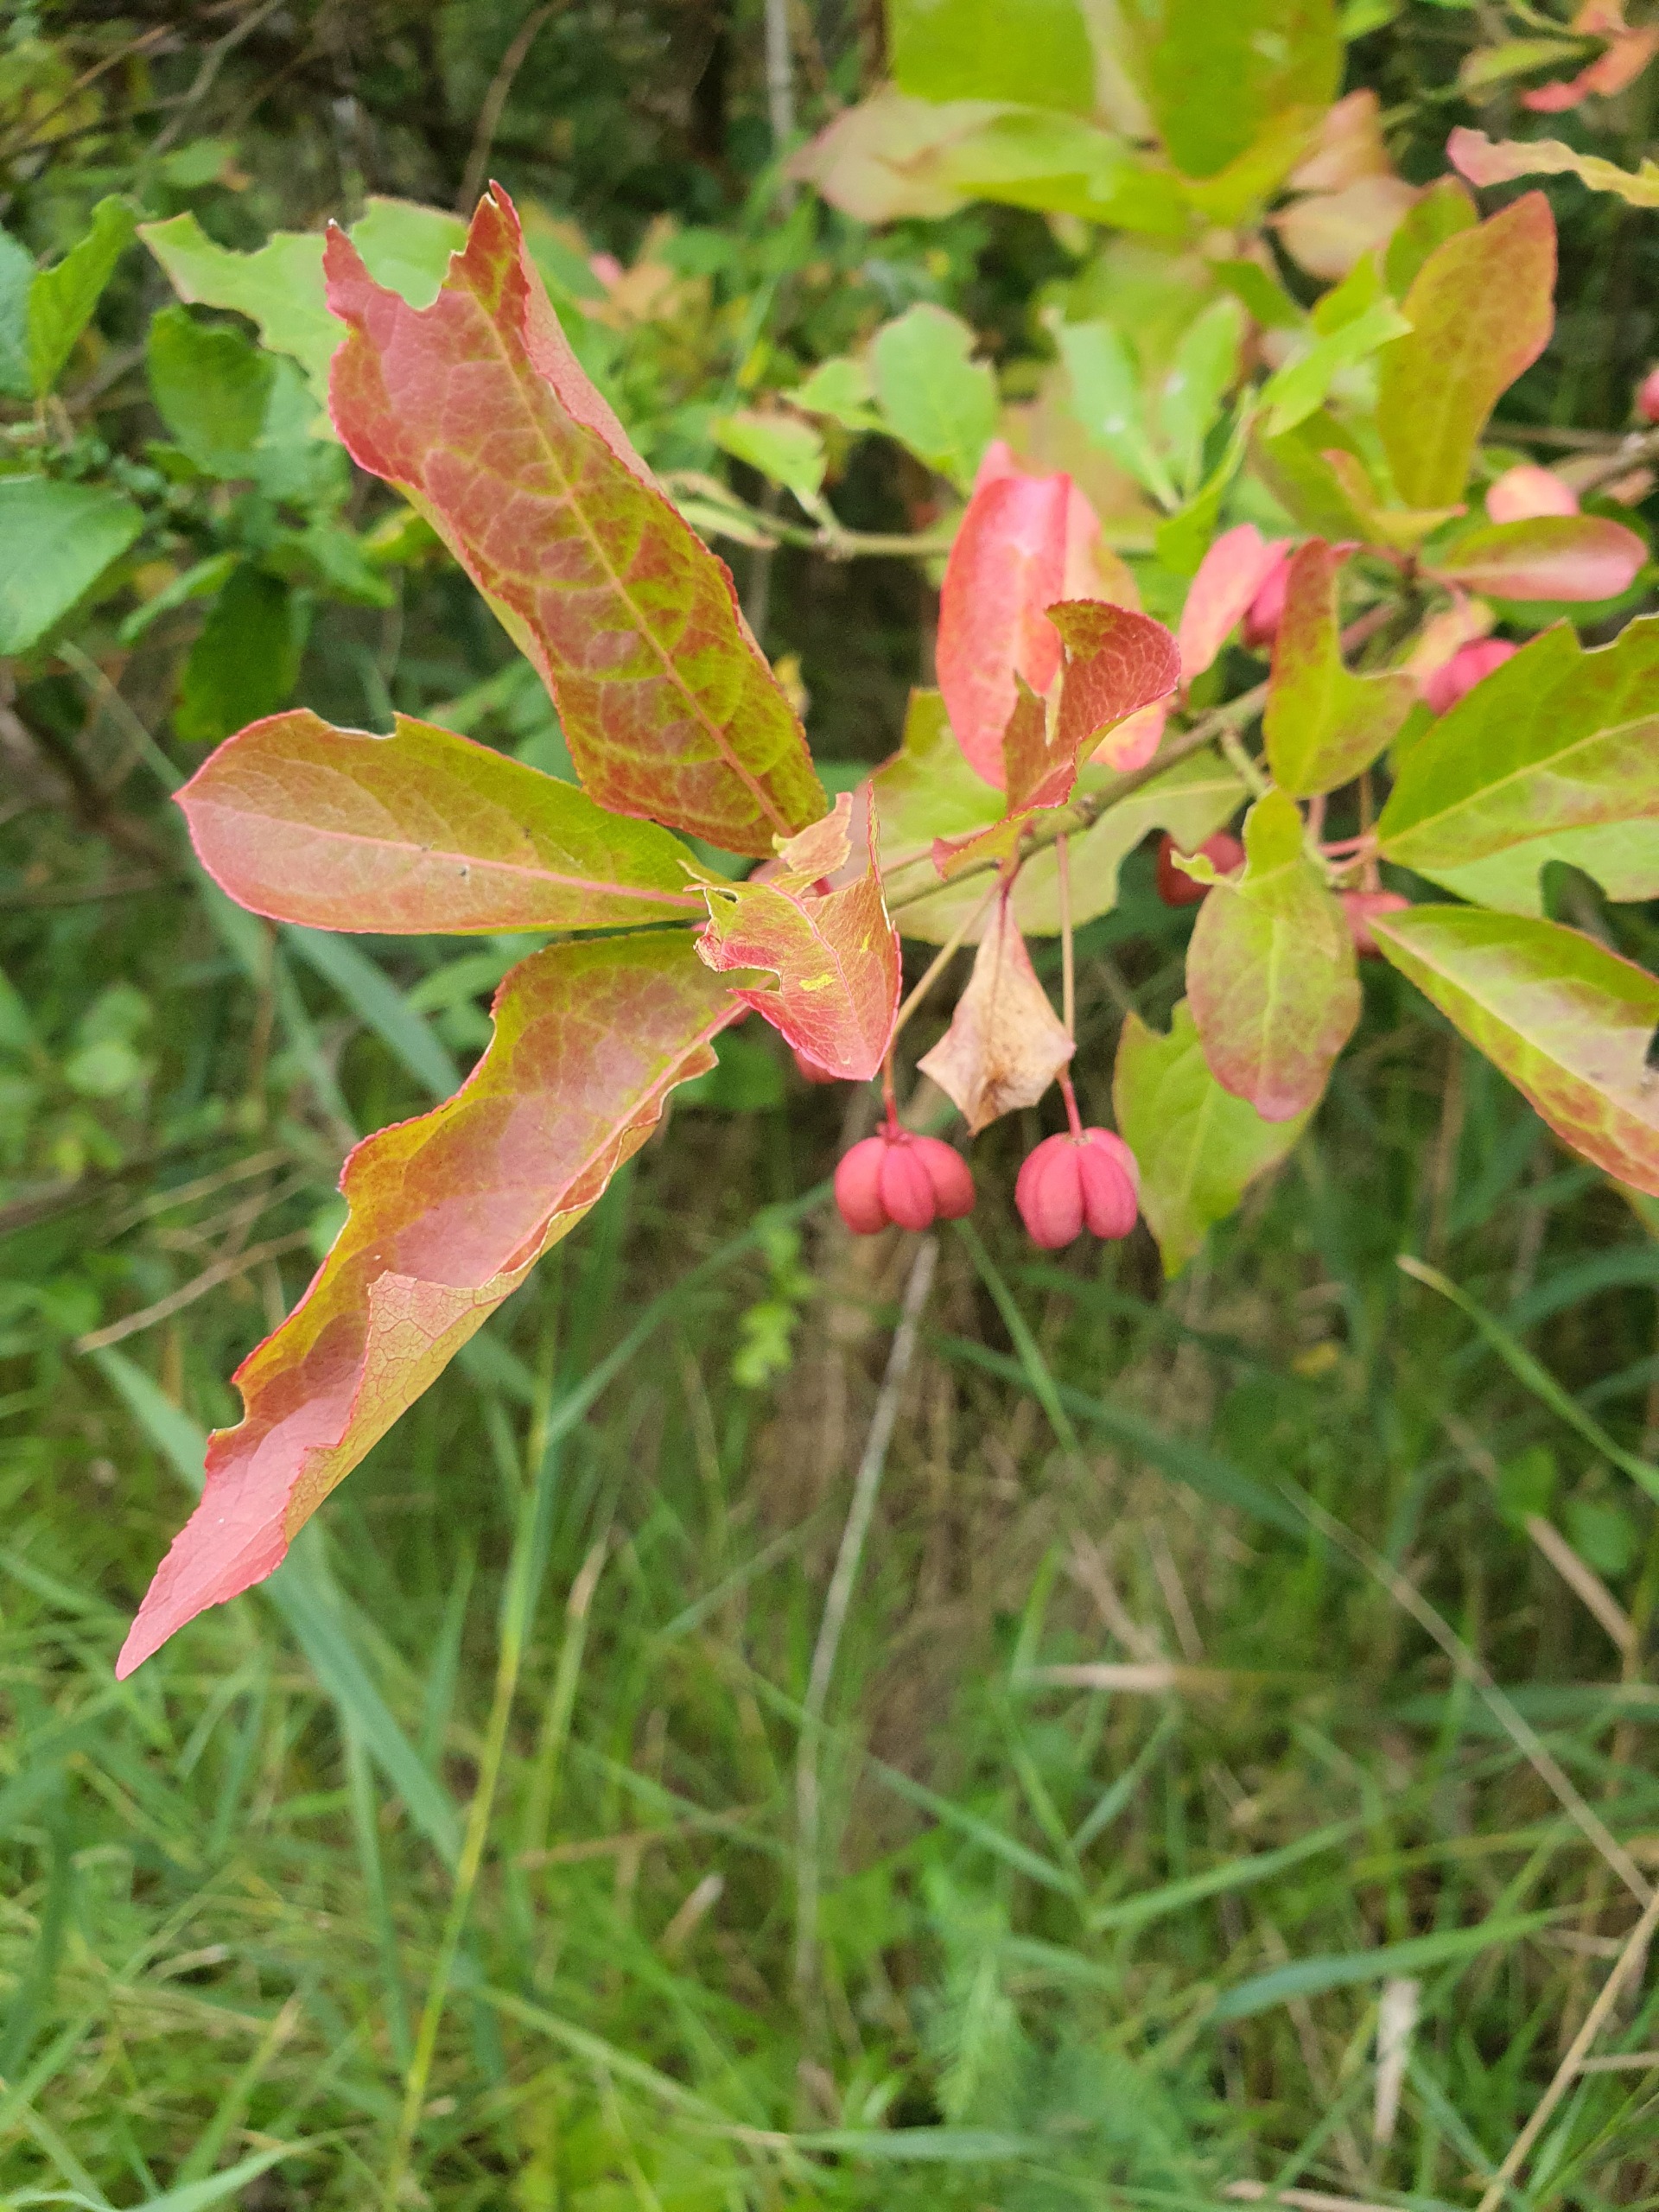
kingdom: Plantae
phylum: Tracheophyta
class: Magnoliopsida
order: Celastrales
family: Celastraceae
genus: Euonymus
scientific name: Euonymus europaeus
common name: Benved
